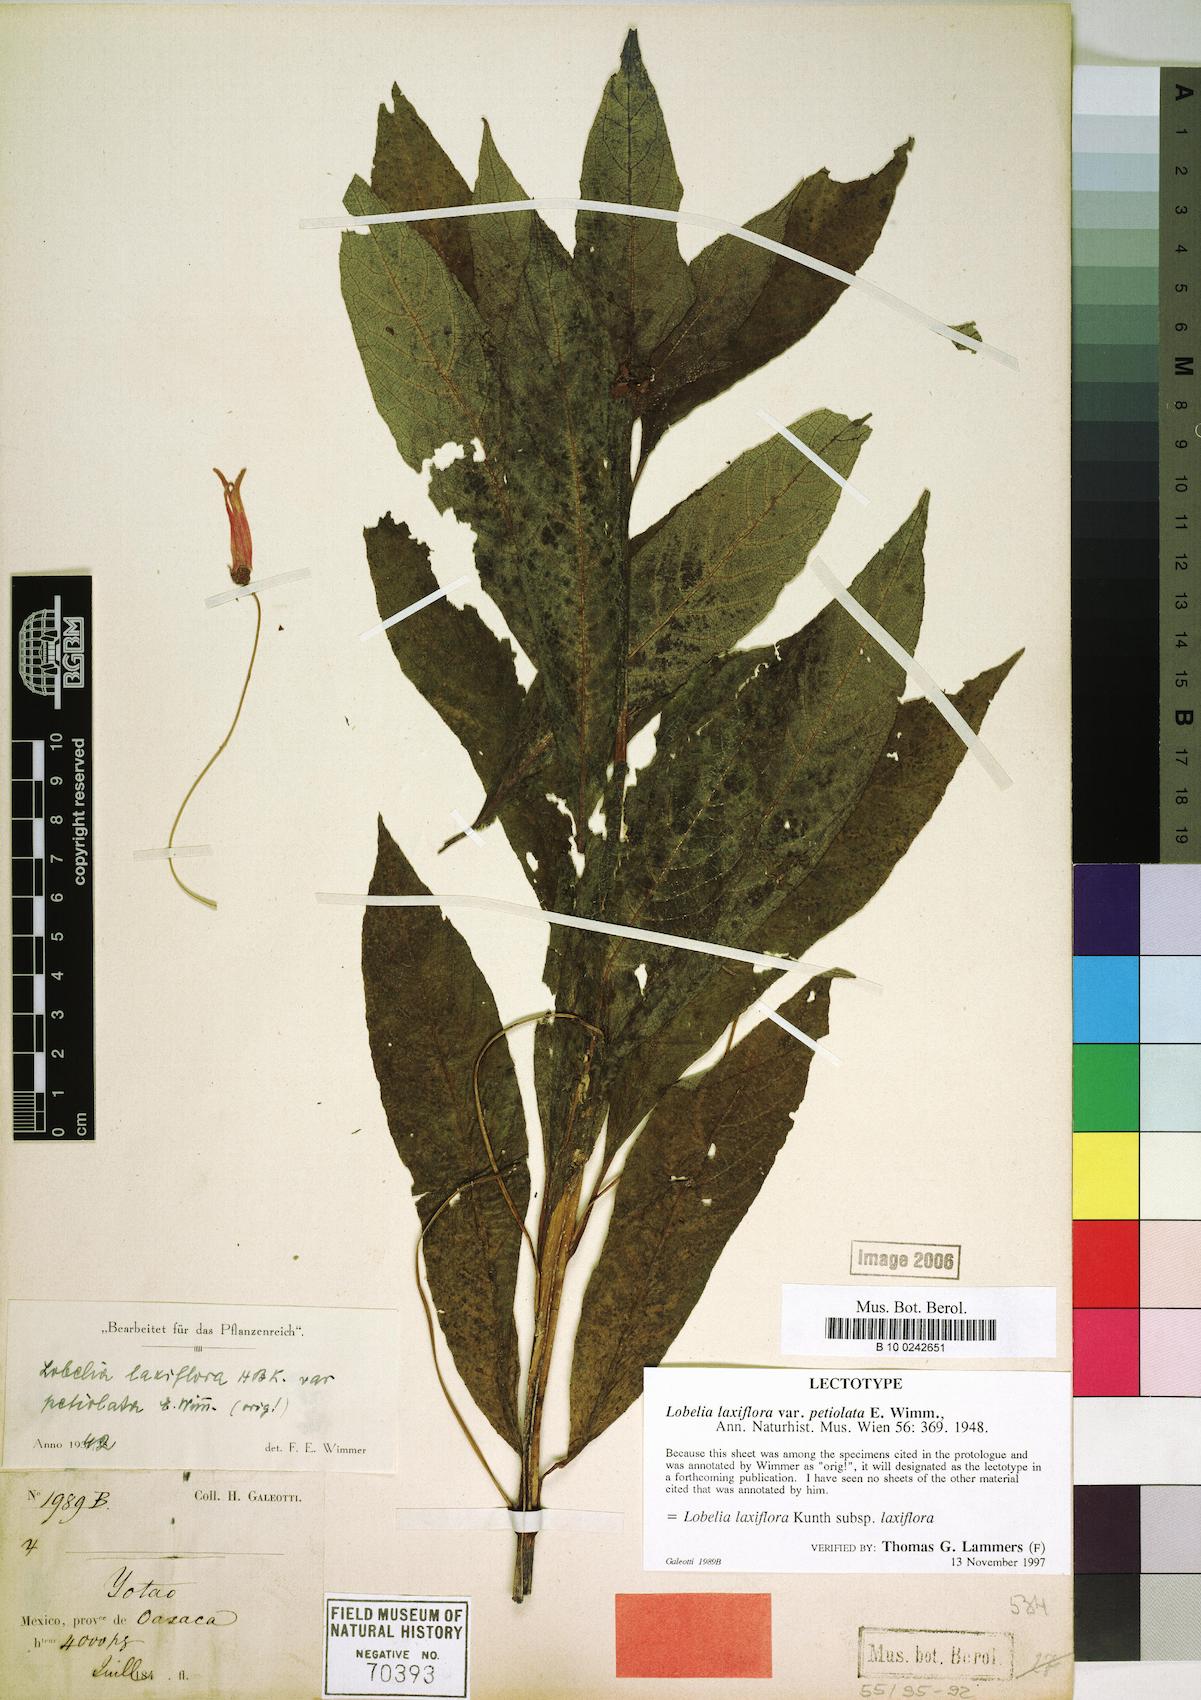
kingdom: Plantae
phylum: Tracheophyta
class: Magnoliopsida
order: Asterales
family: Campanulaceae
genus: Lobelia
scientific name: Lobelia laxiflora
